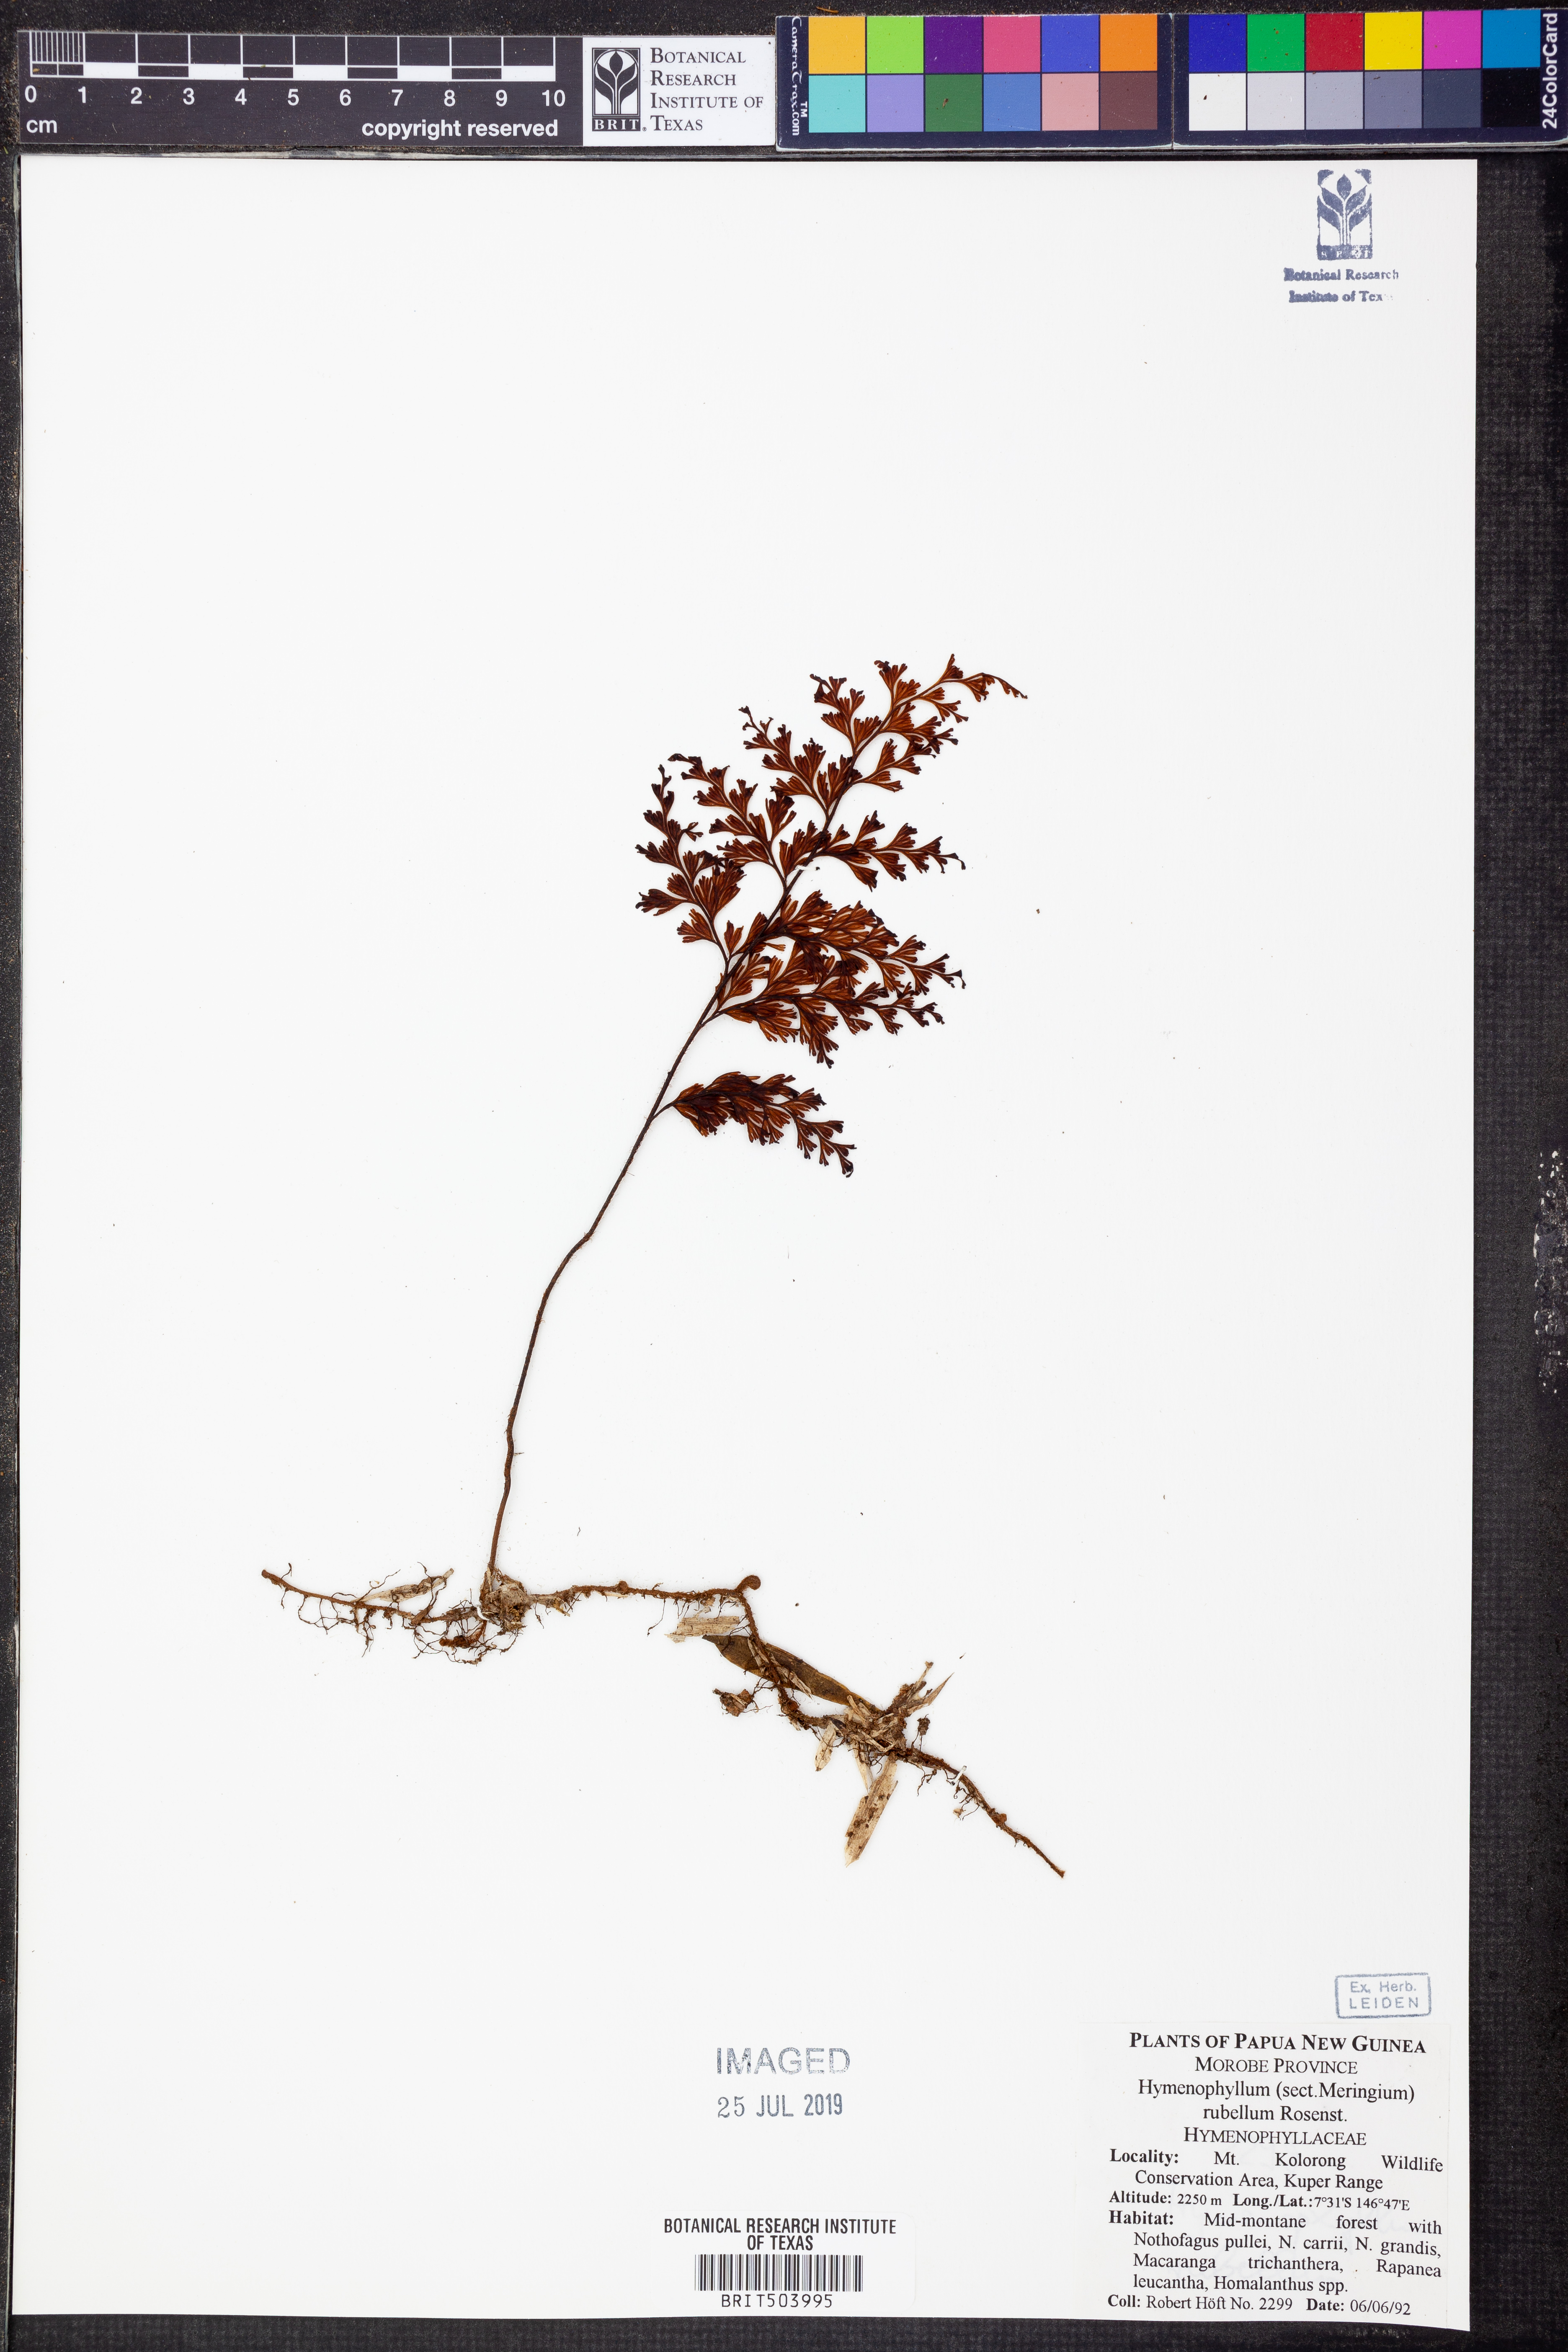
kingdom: Plantae
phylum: Tracheophyta
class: Polypodiopsida
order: Hymenophyllales
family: Hymenophyllaceae
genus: Hymenophyllum
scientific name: Hymenophyllum rubellum
